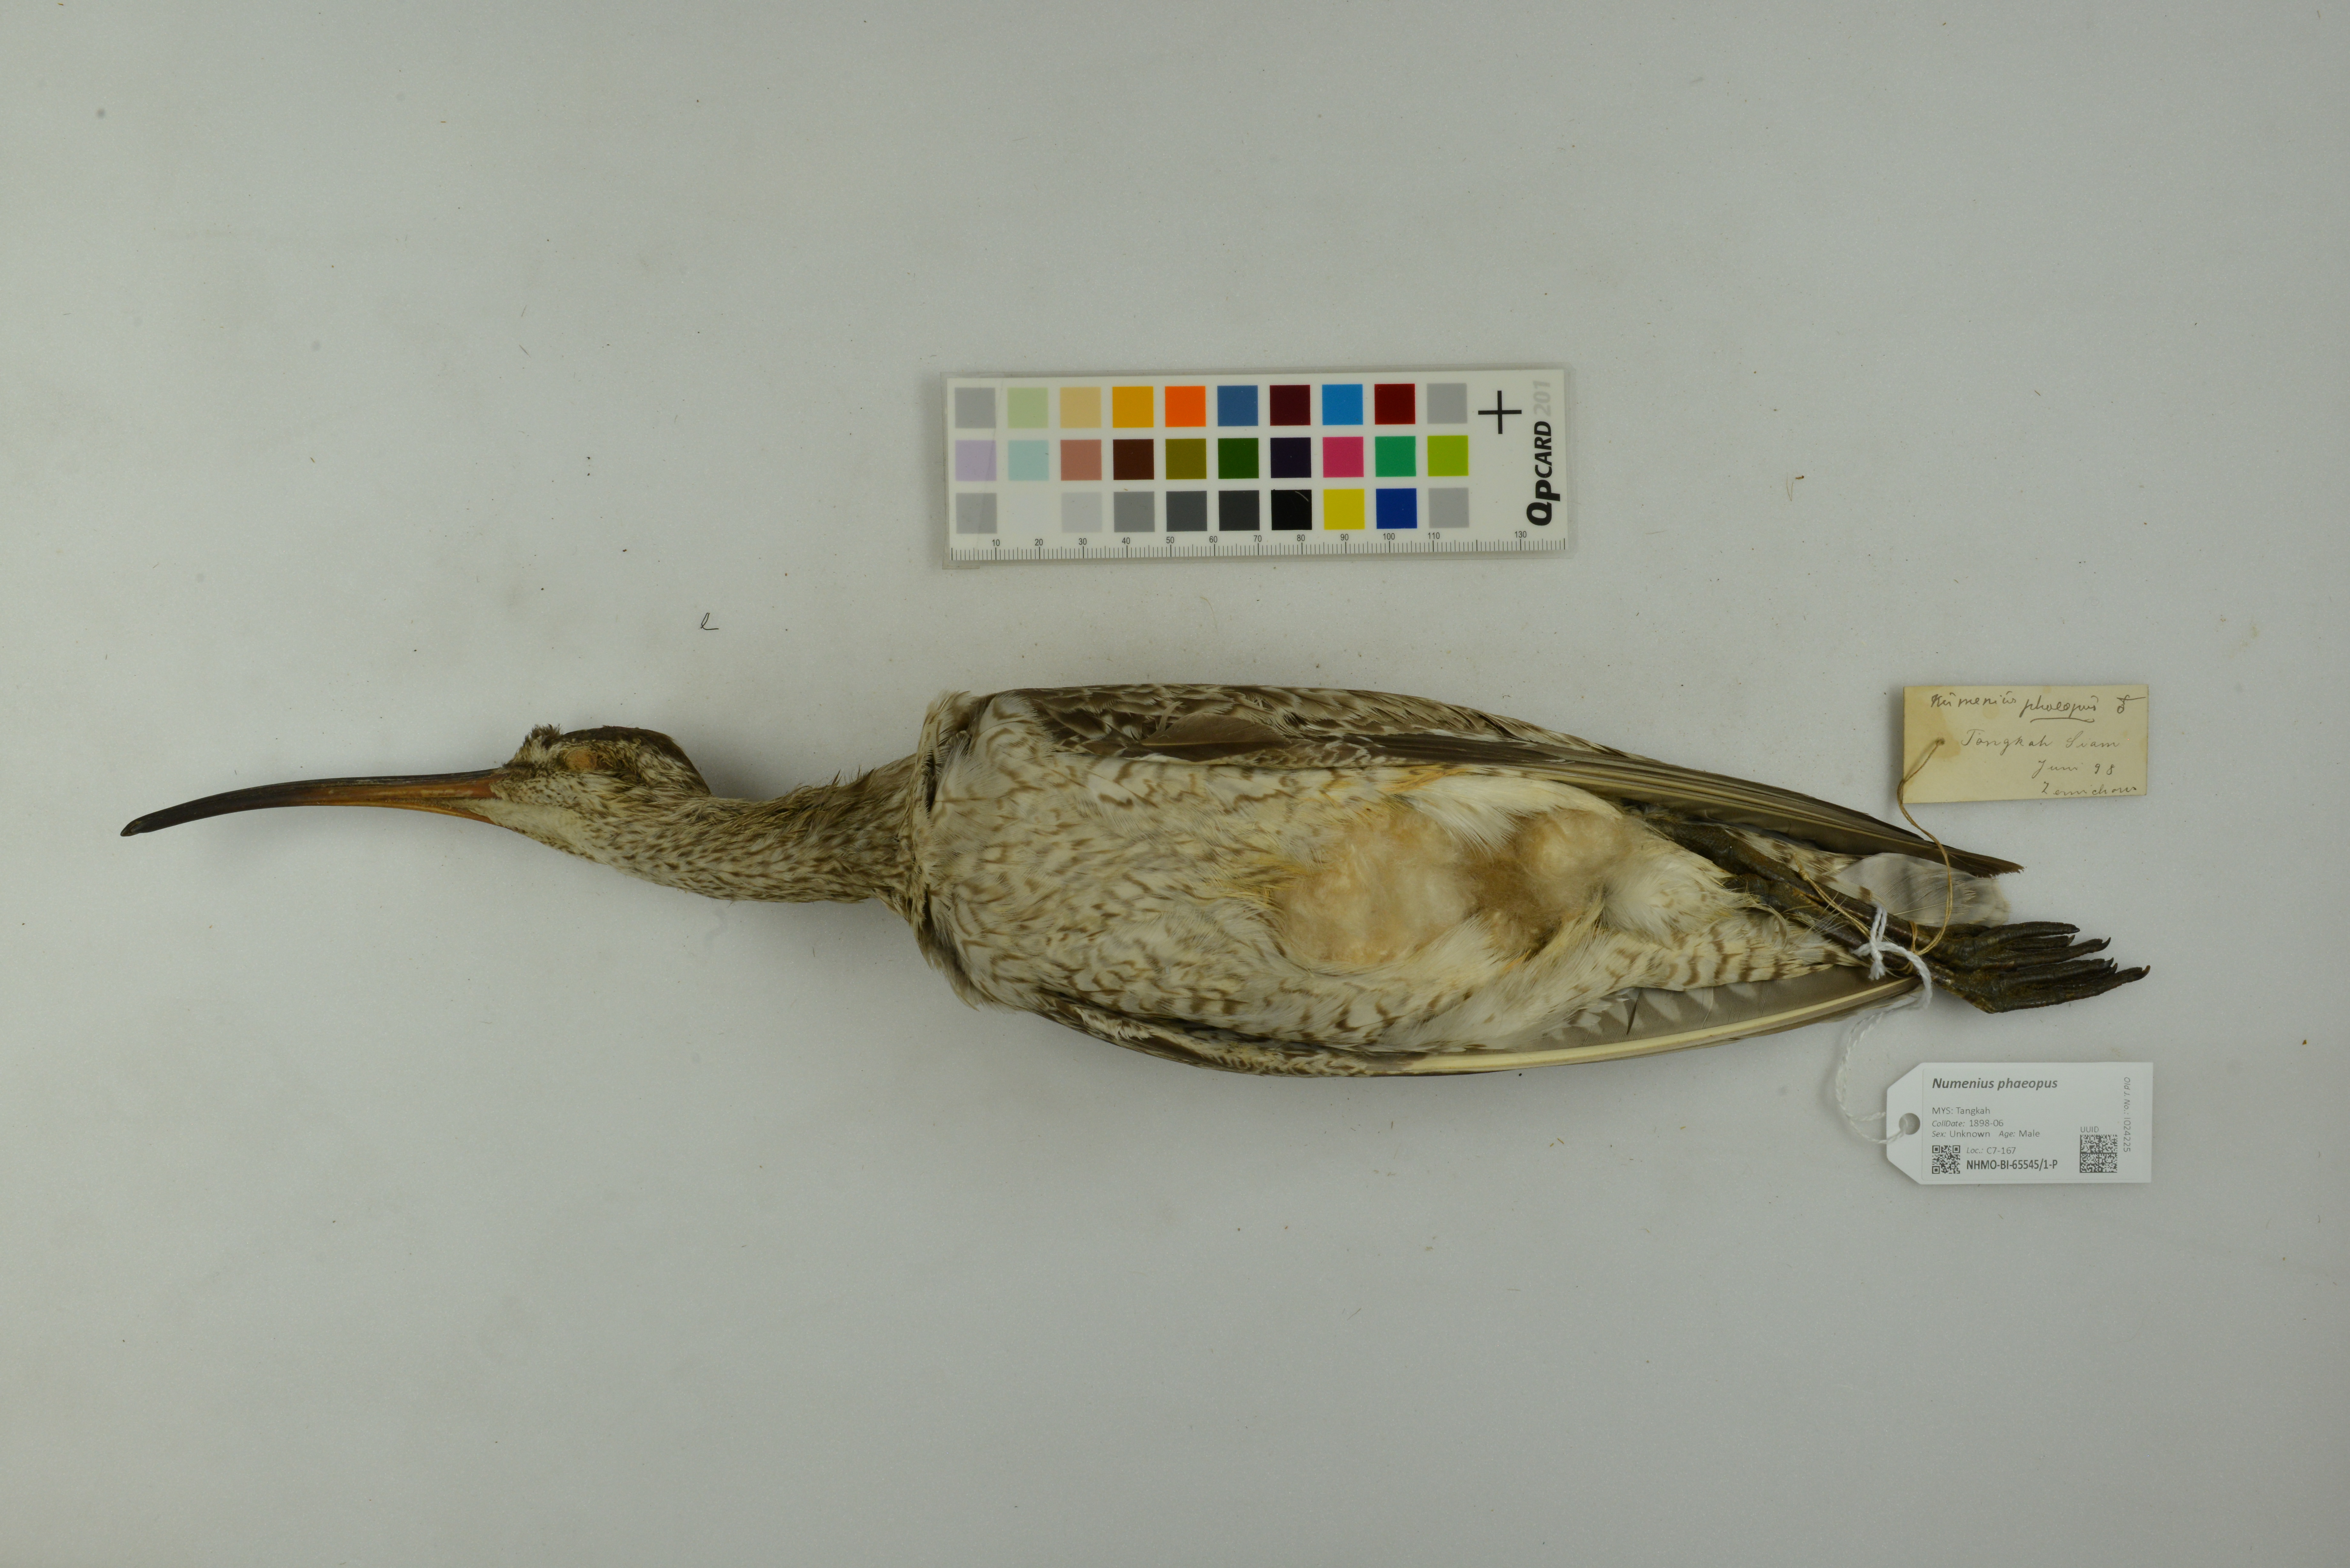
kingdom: Animalia
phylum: Chordata
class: Aves
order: Charadriiformes
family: Scolopacidae
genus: Numenius
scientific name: Numenius phaeopus
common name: Whimbrel
